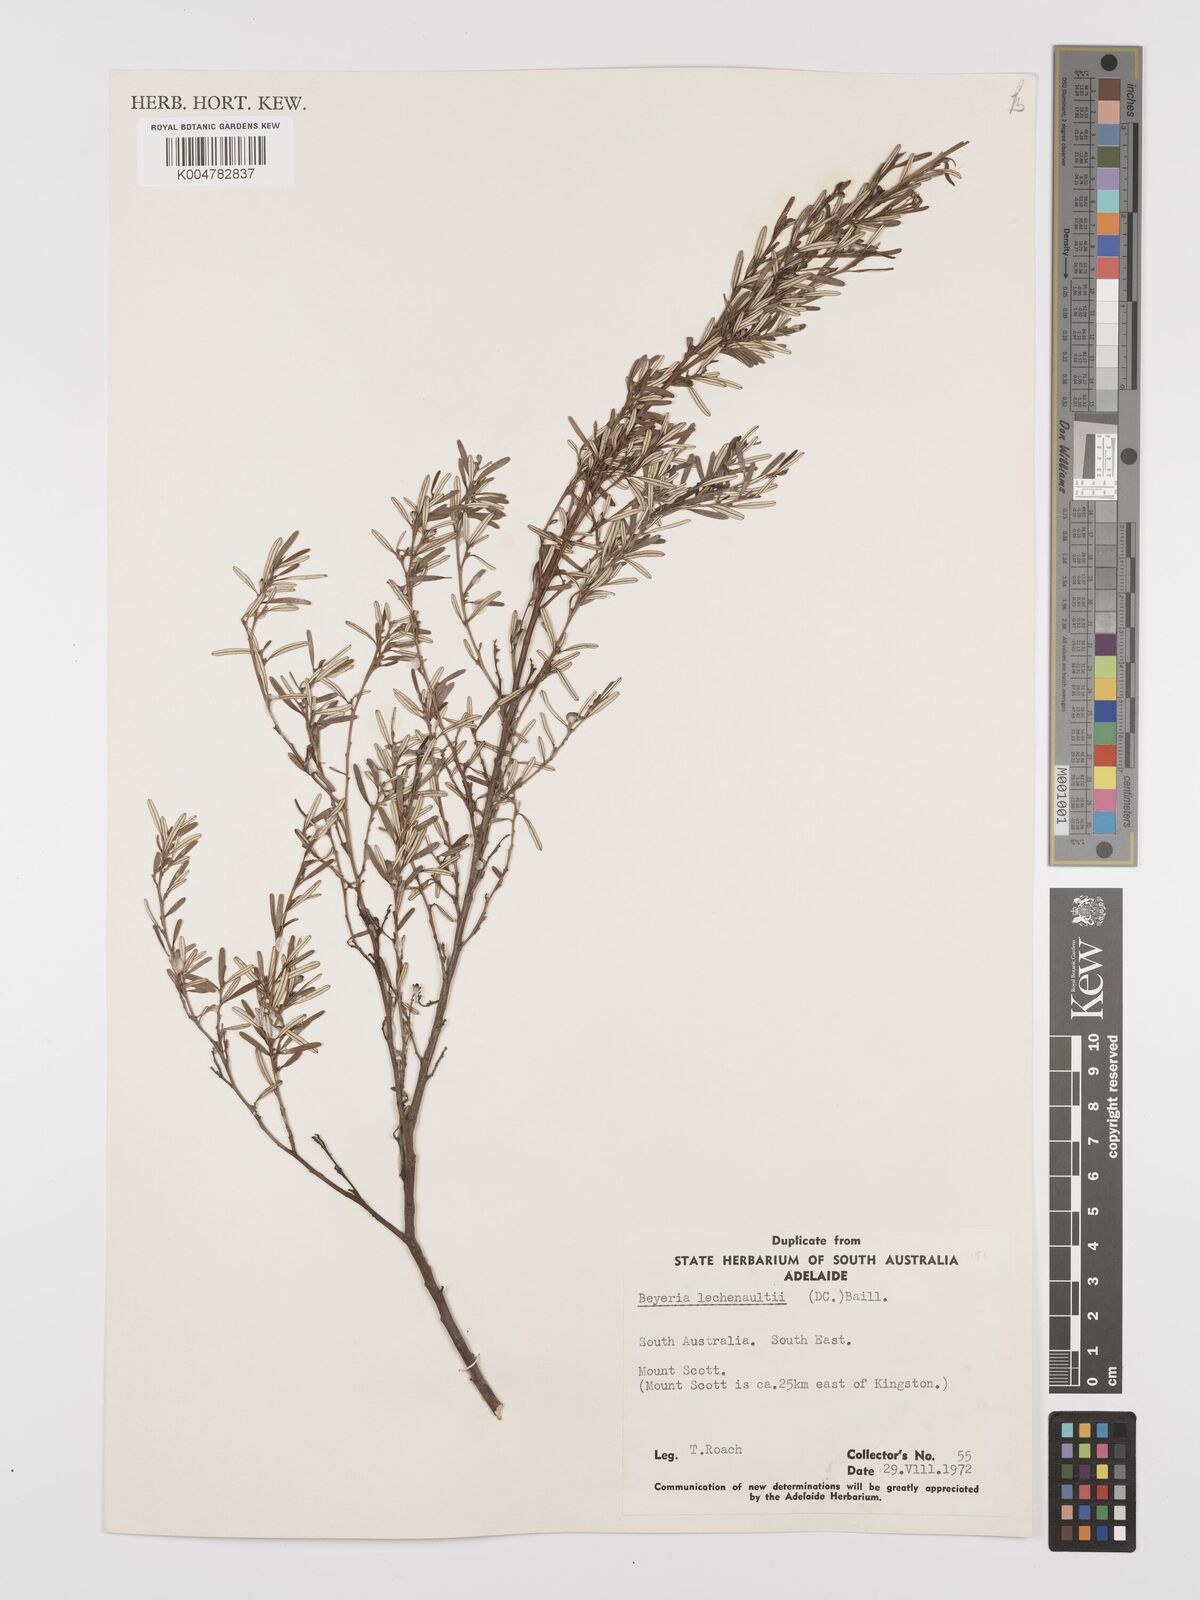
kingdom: Plantae
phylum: Tracheophyta
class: Magnoliopsida
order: Malpighiales
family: Euphorbiaceae
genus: Beyeria
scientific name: Beyeria lechenaultii
